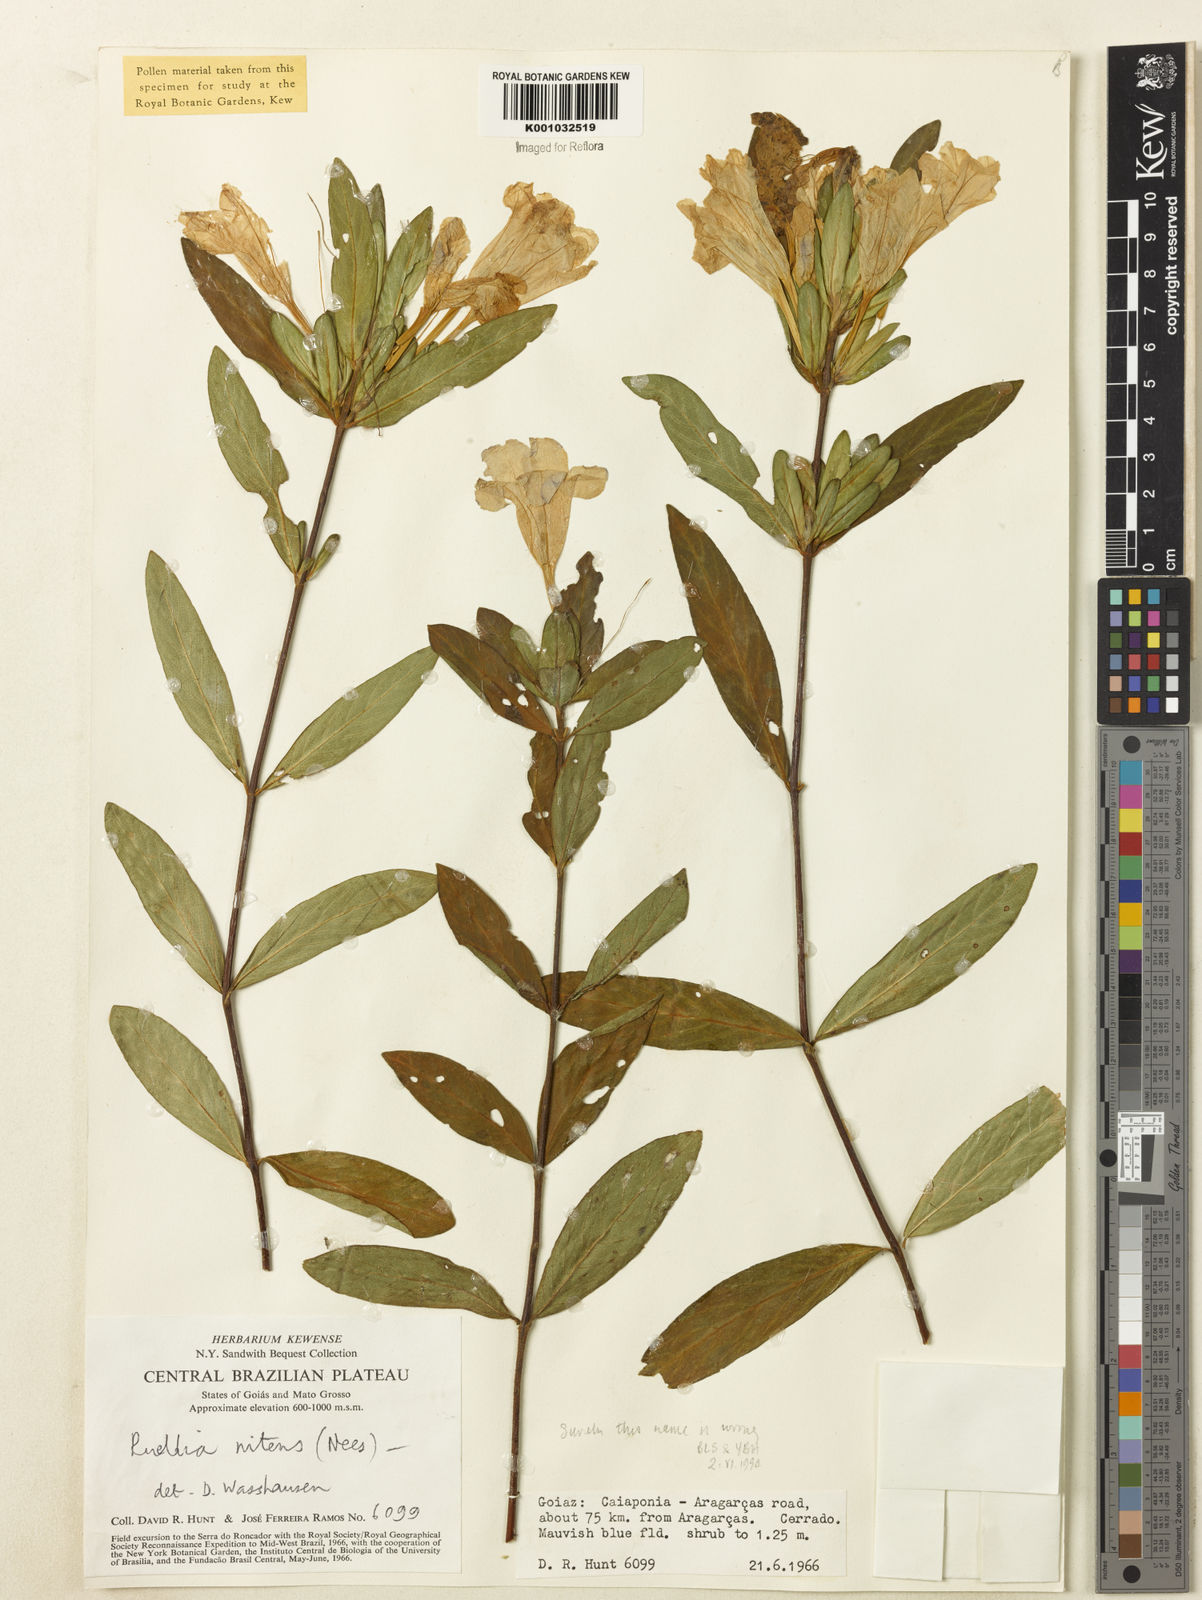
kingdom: Plantae
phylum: Tracheophyta
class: Magnoliopsida
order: Lamiales
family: Acanthaceae
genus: Ruellia
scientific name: Ruellia nitens
